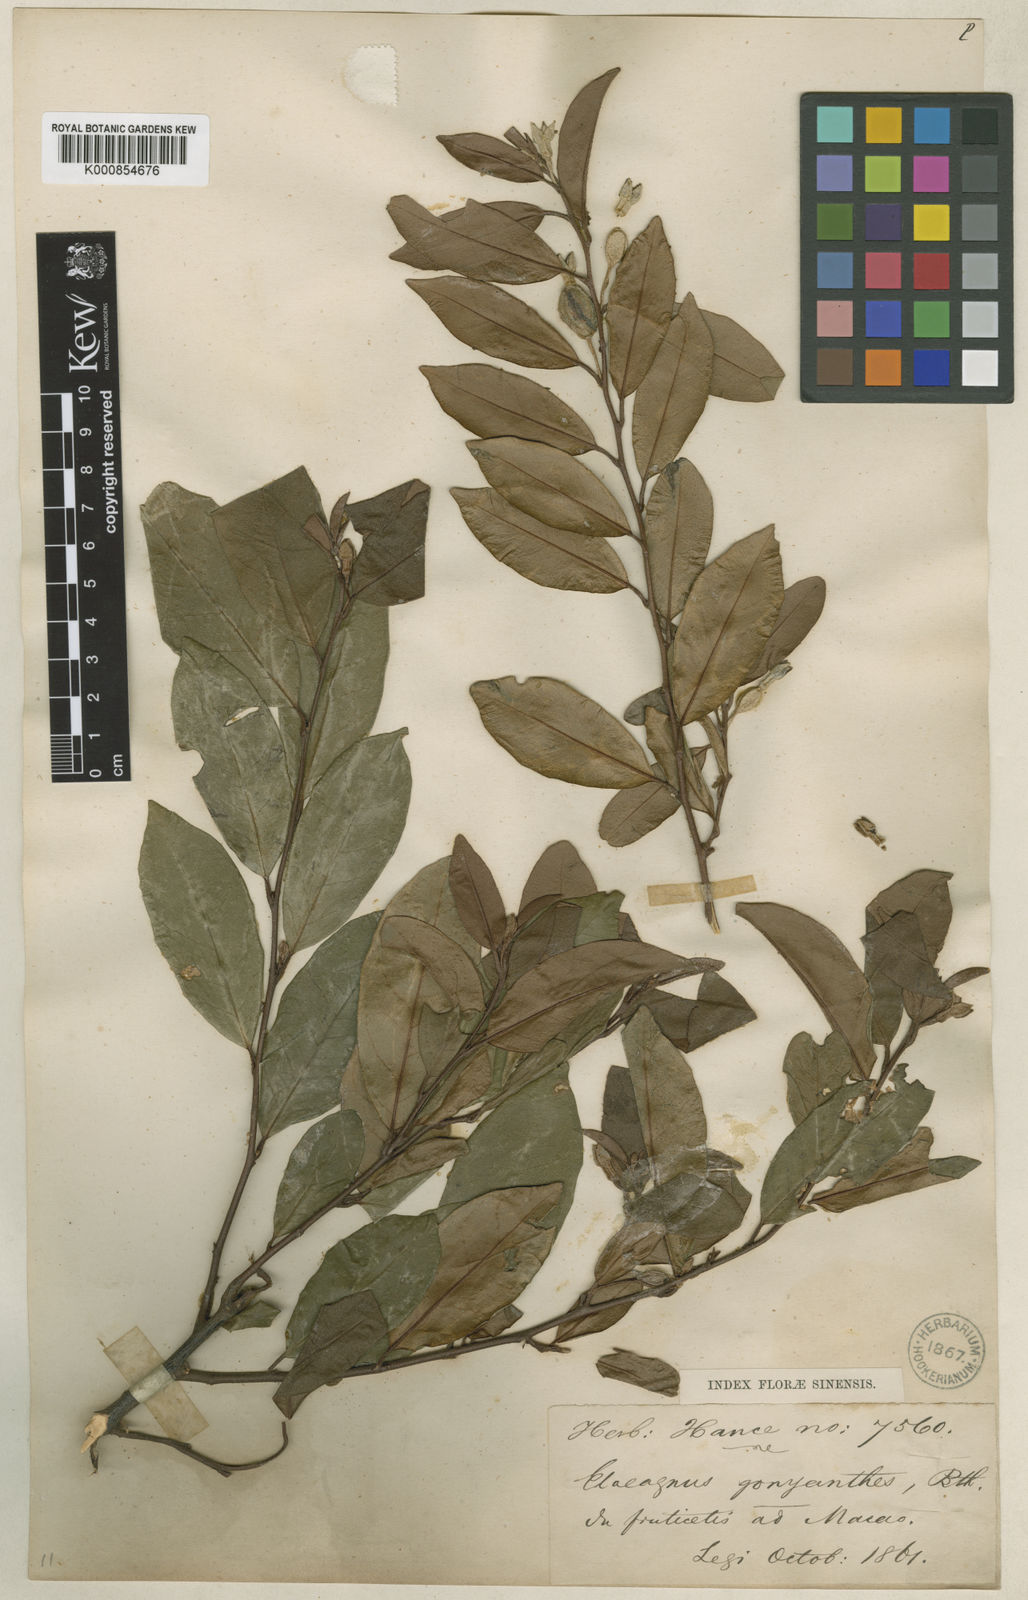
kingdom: Plantae
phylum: Tracheophyta
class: Magnoliopsida
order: Rosales
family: Elaeagnaceae
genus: Elaeagnus
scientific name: Elaeagnus conferta
